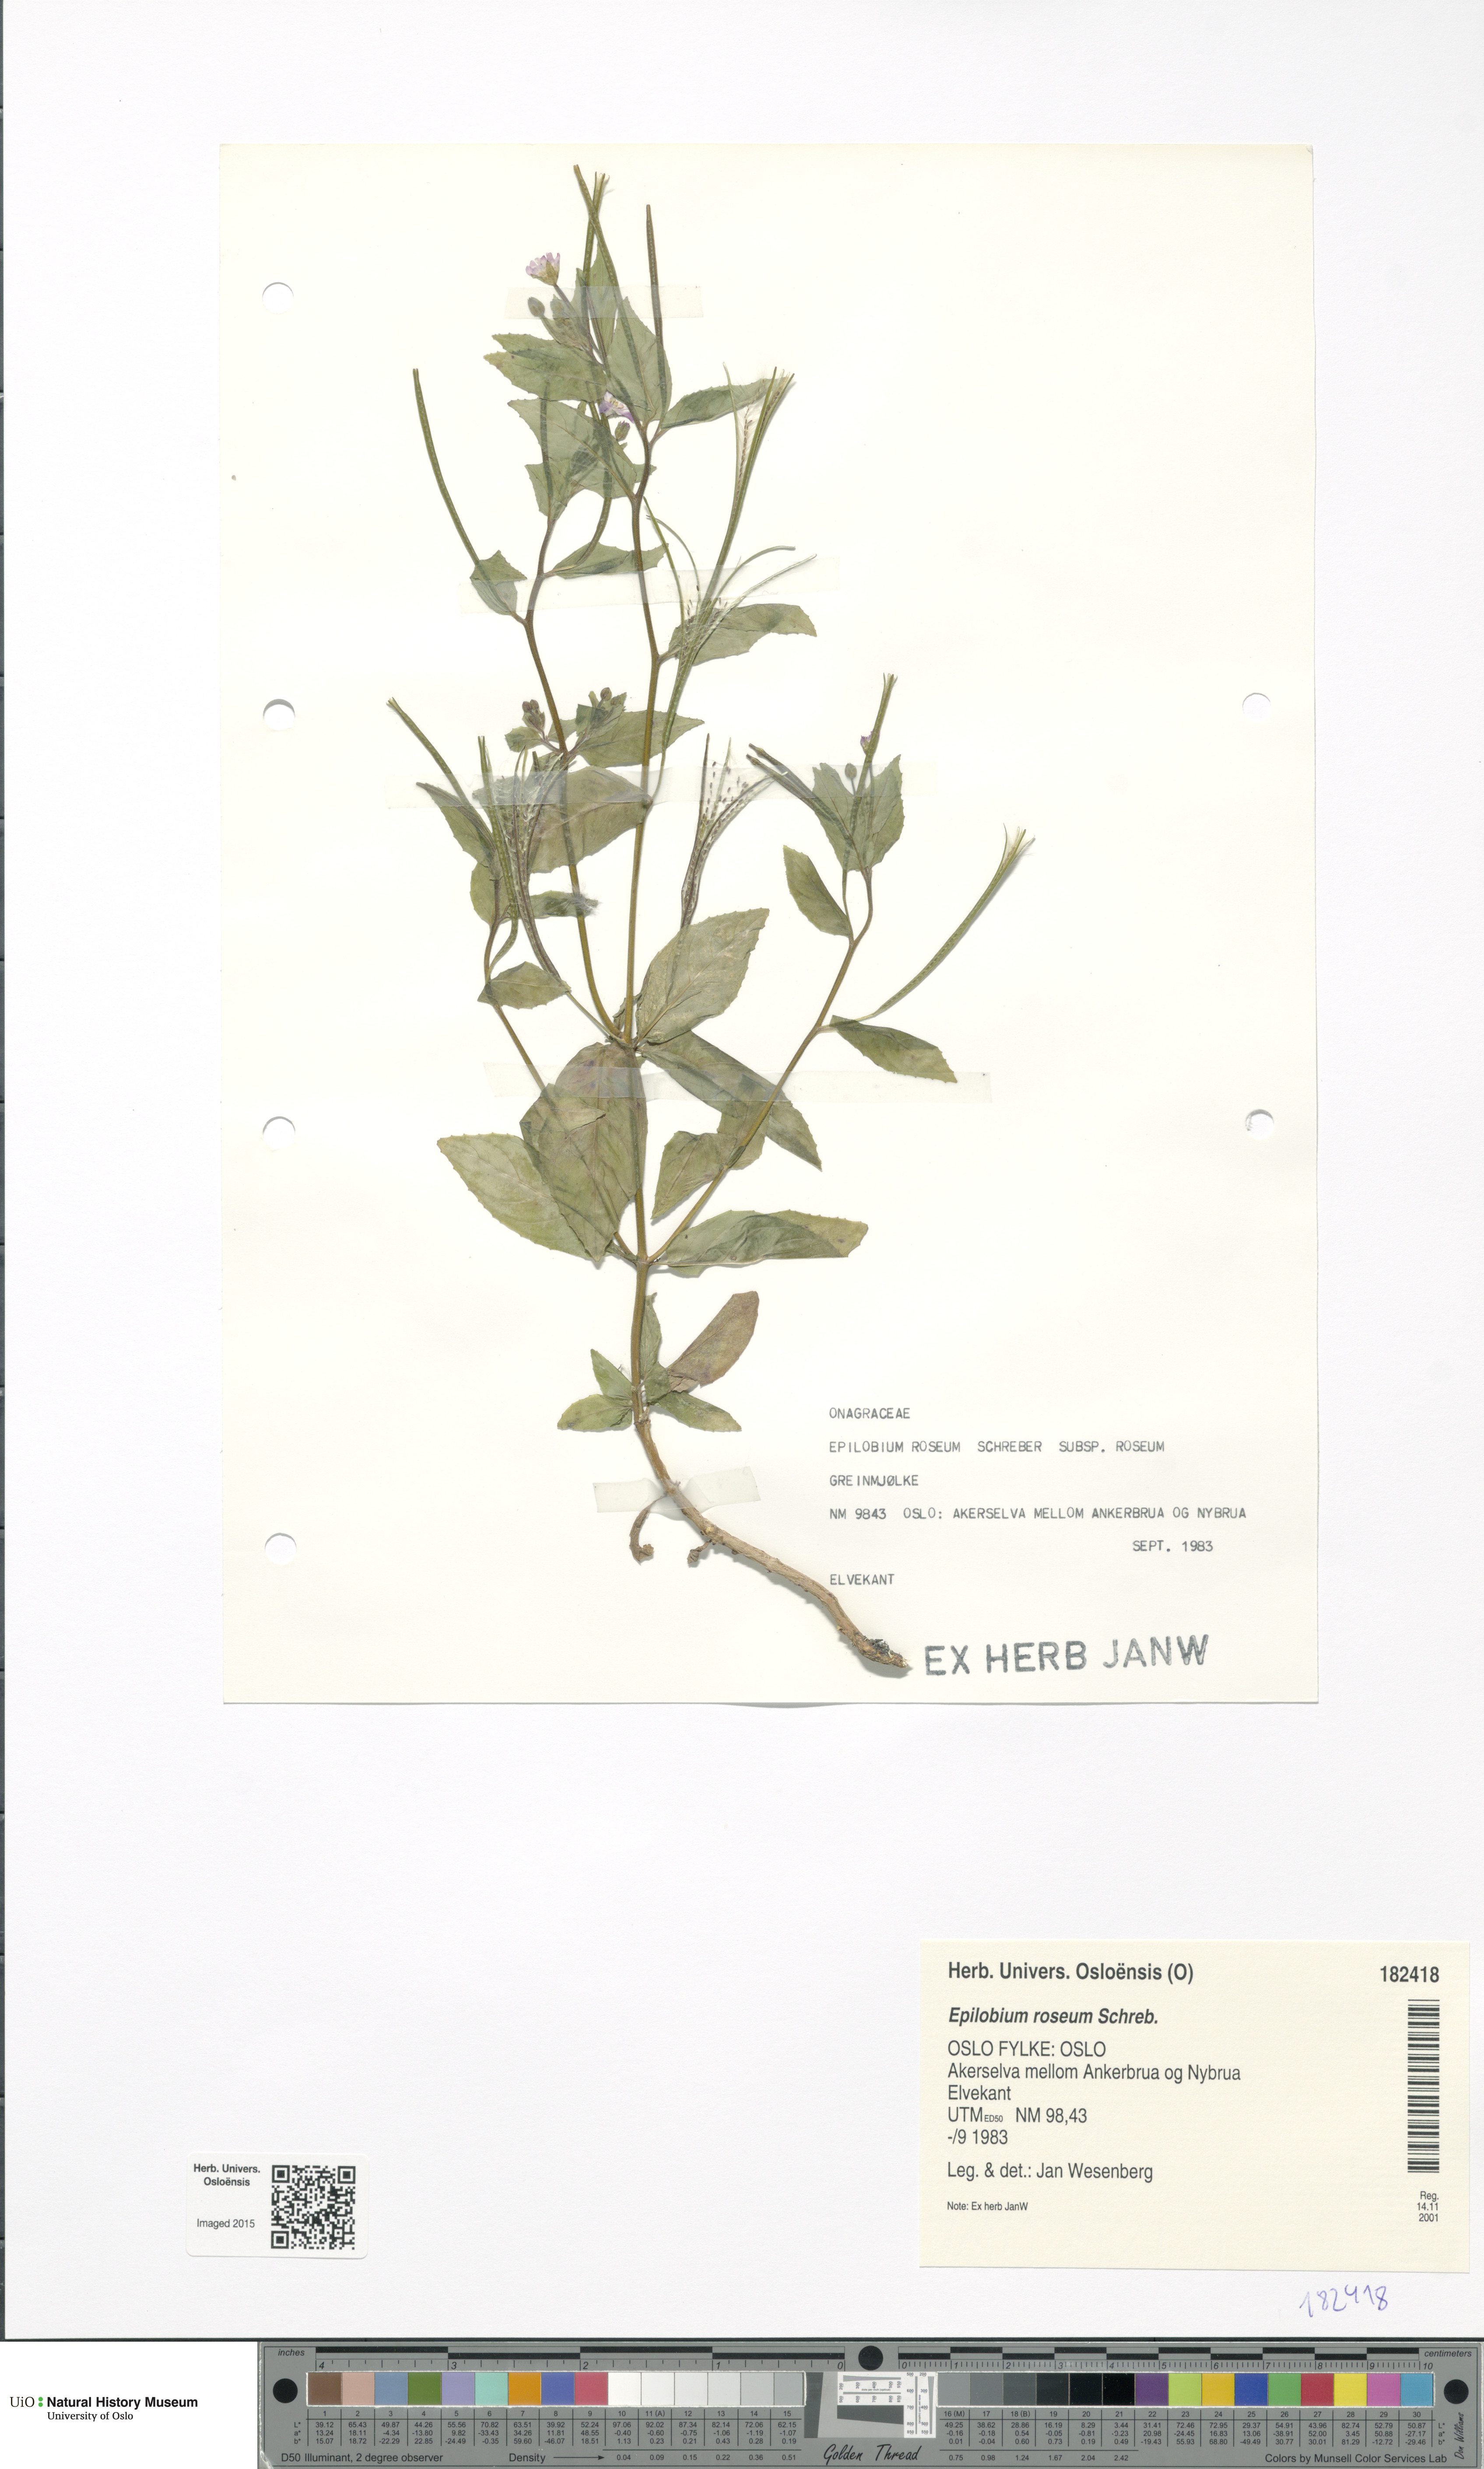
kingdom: Plantae
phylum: Tracheophyta
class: Magnoliopsida
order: Myrtales
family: Onagraceae
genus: Epilobium
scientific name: Epilobium roseum
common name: Pale willowherb
